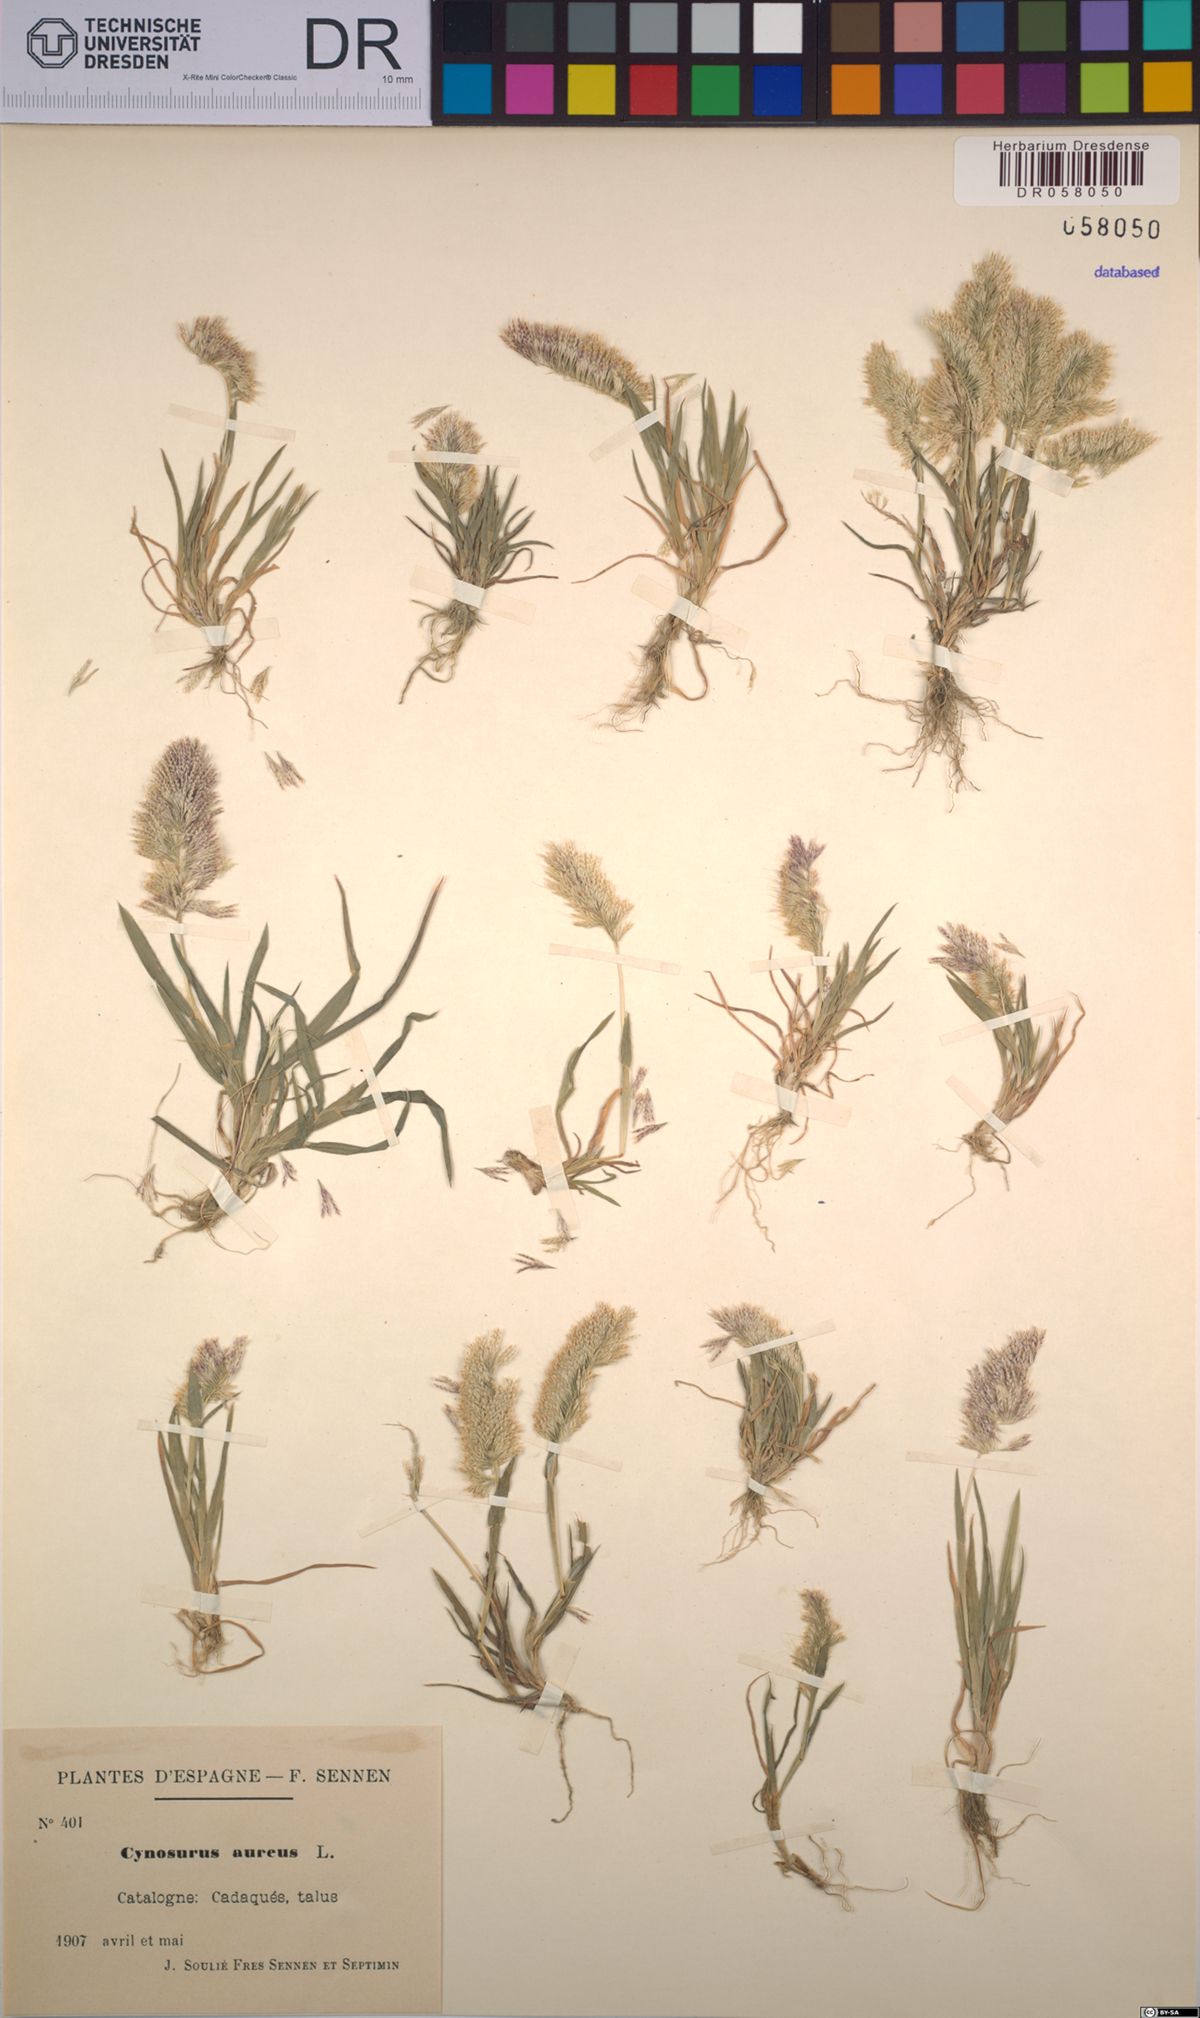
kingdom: Plantae
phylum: Tracheophyta
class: Liliopsida
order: Poales
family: Poaceae
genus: Lamarckia
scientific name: Lamarckia aurea
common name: Golden dog's-tail
